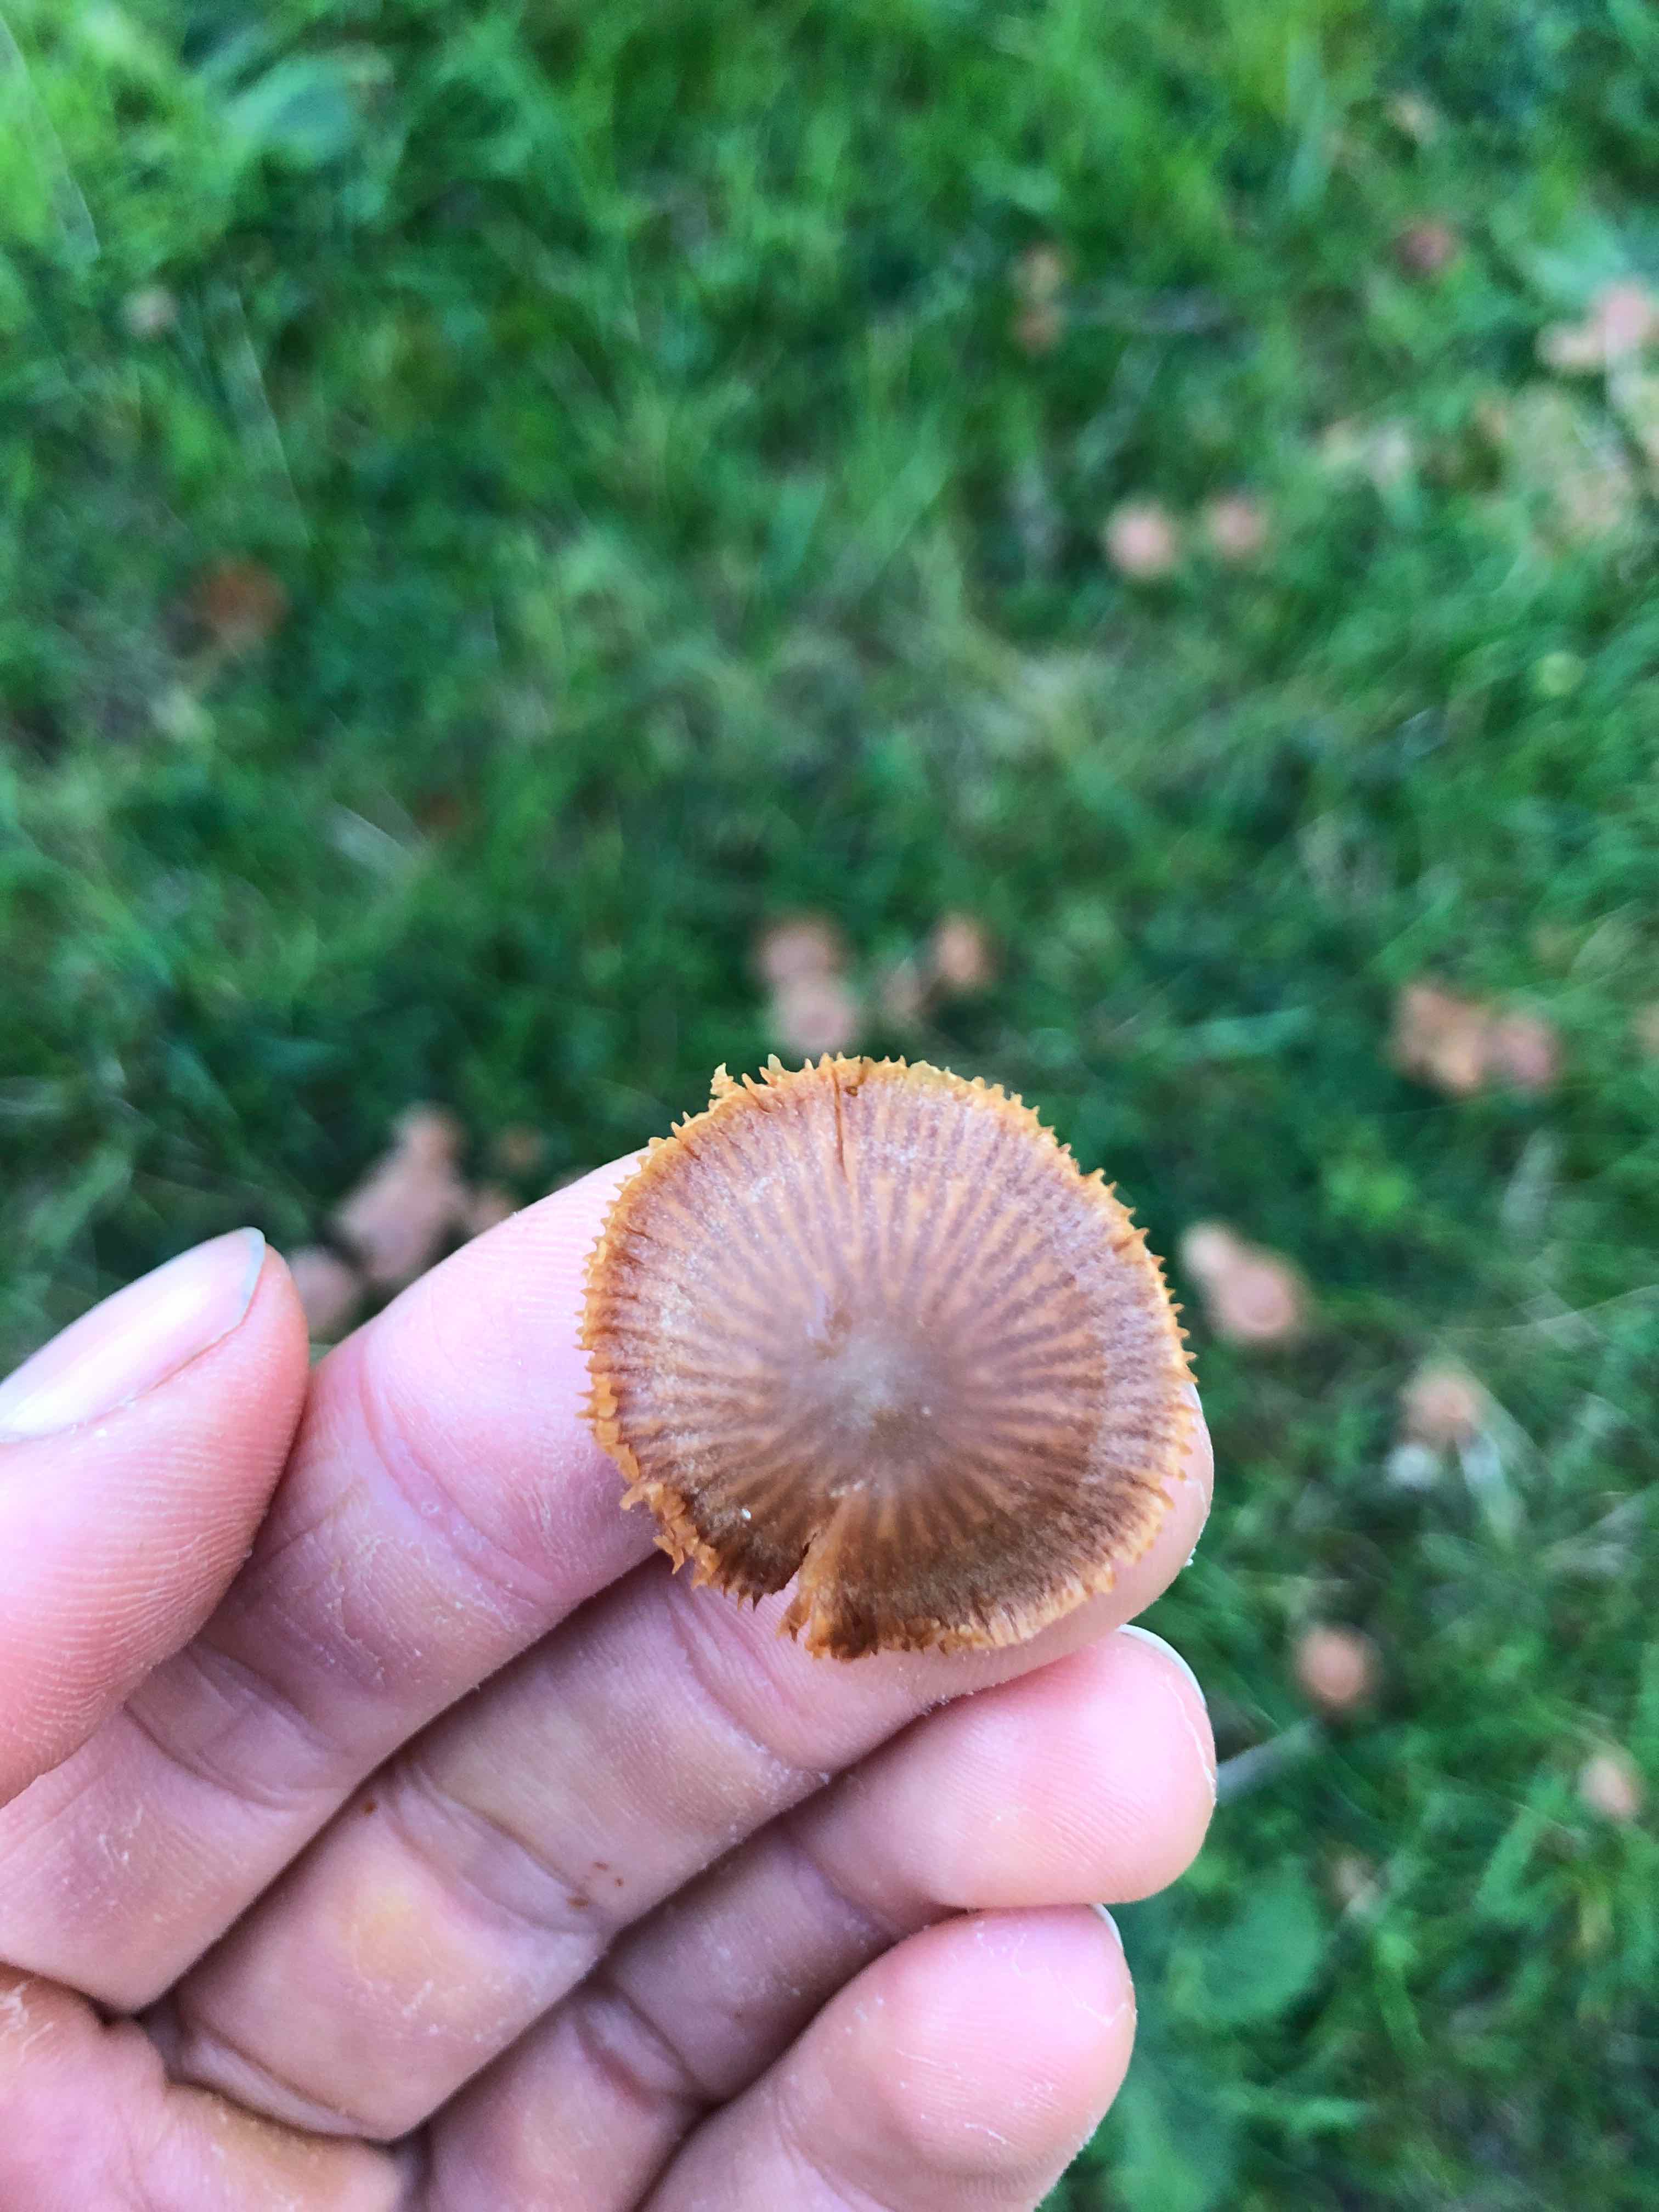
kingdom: Fungi
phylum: Basidiomycota
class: Agaricomycetes
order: Agaricales
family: Tubariaceae
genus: Tubaria
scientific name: Tubaria furfuracea
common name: kliddet fnughat
